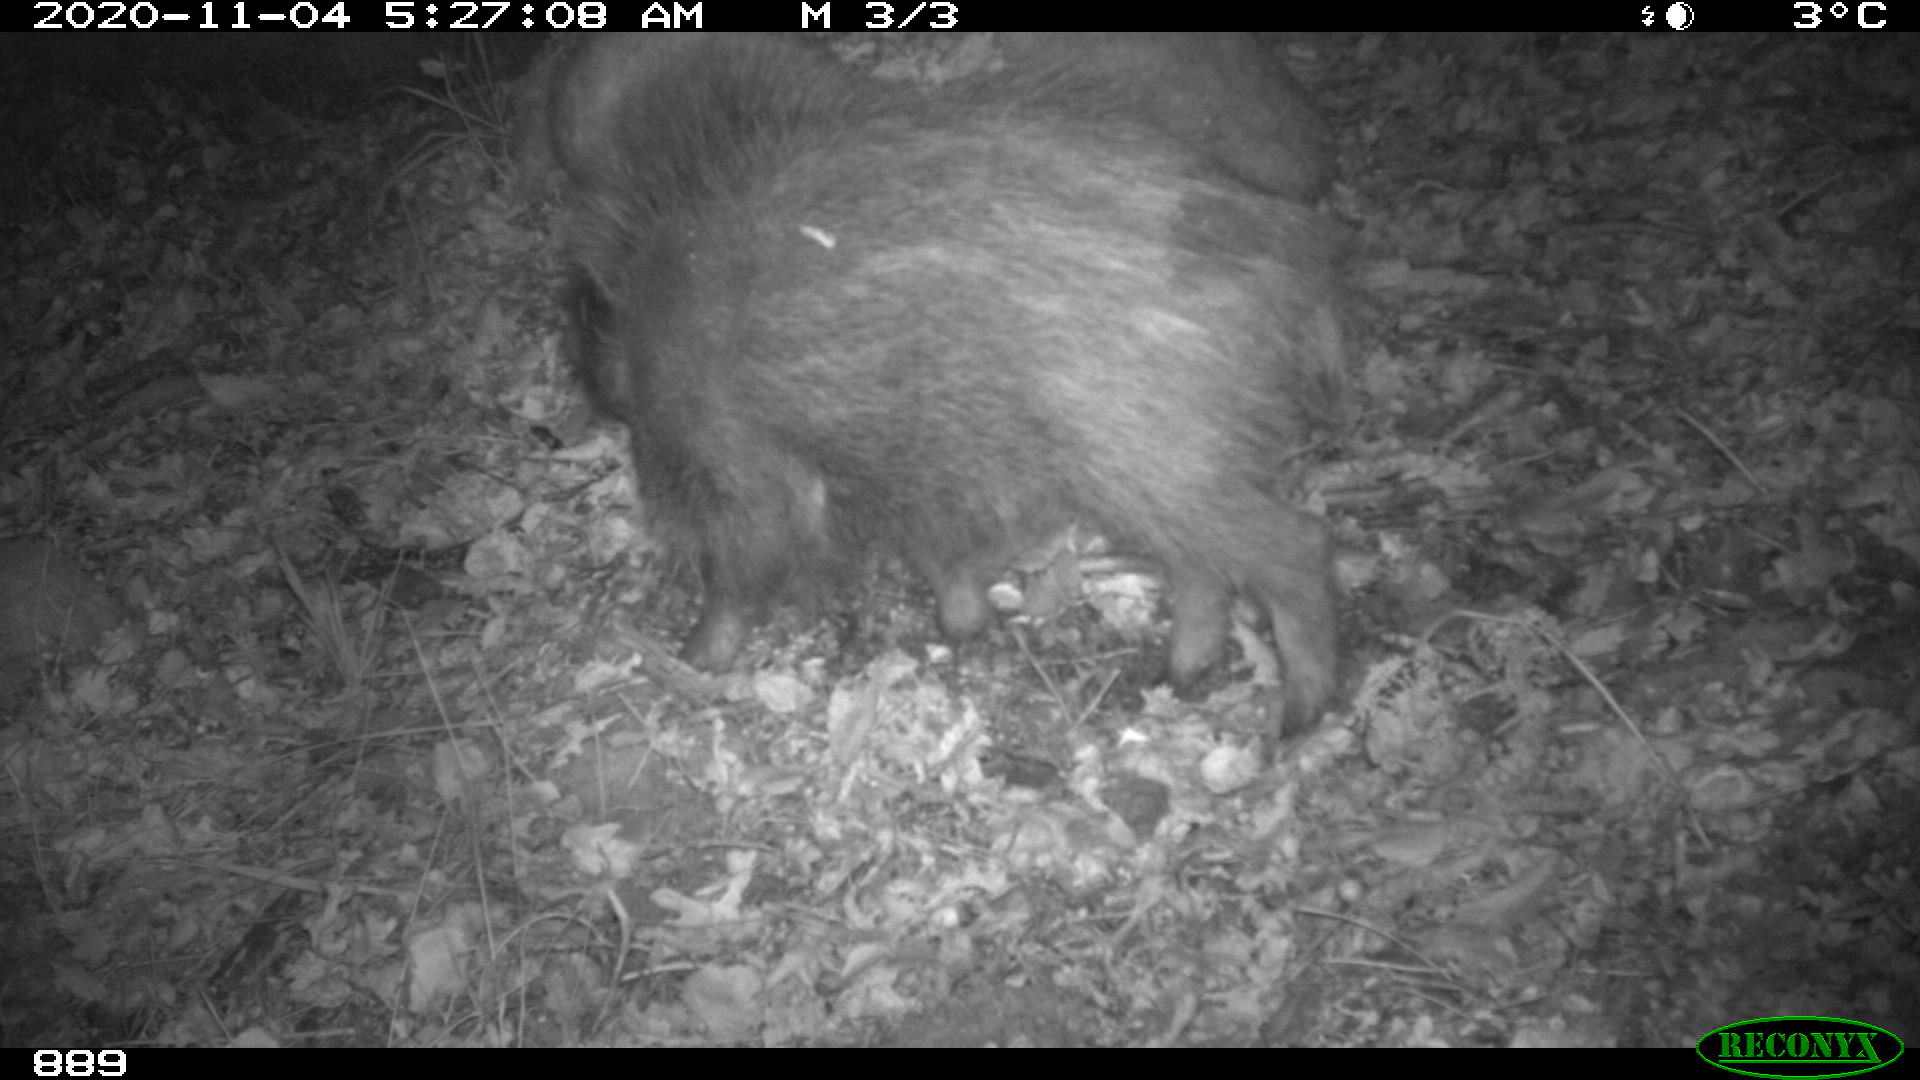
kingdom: Animalia
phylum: Chordata
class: Mammalia
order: Artiodactyla
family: Suidae
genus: Sus
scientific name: Sus scrofa
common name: Wild boar
